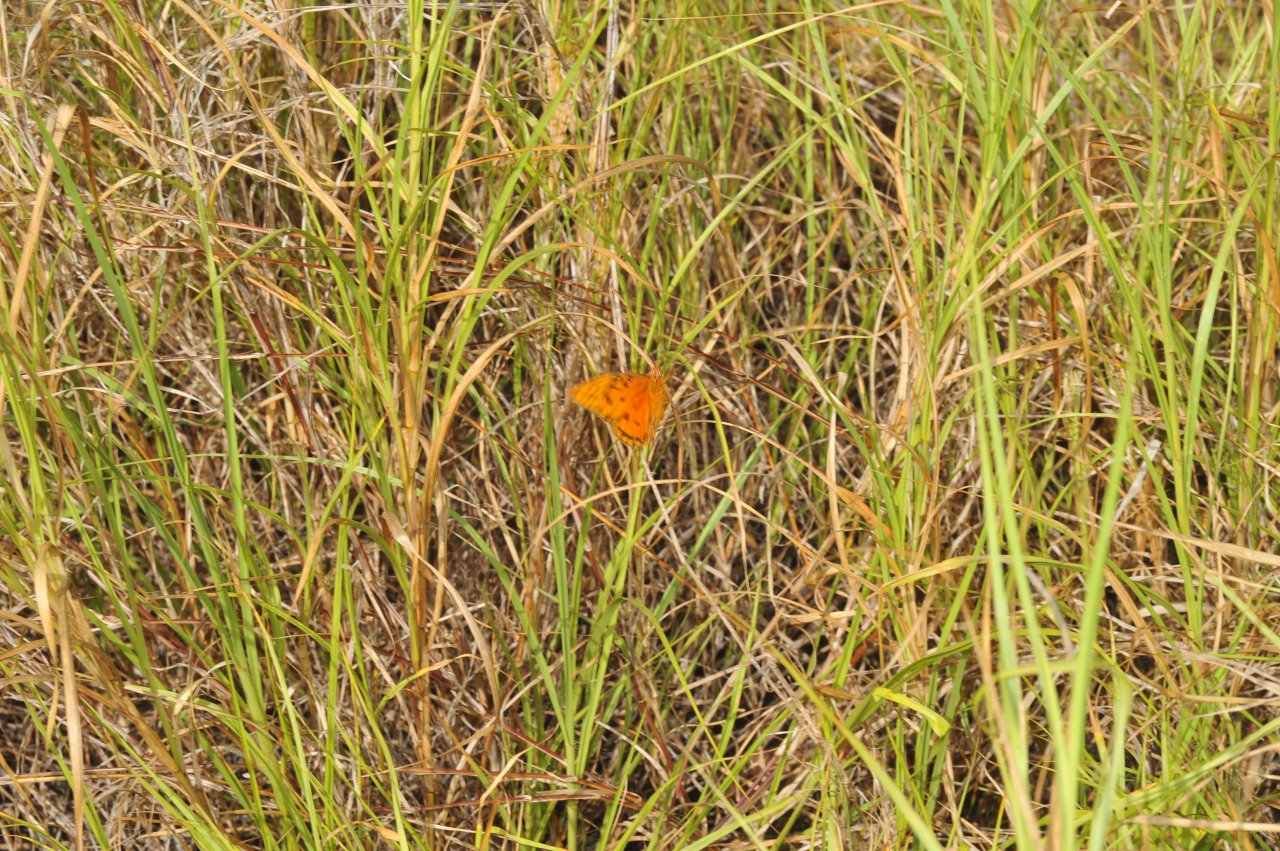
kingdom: Animalia
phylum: Arthropoda
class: Insecta
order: Lepidoptera
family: Nymphalidae
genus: Dione
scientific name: Dione vanillae
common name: Gulf Fritillary
